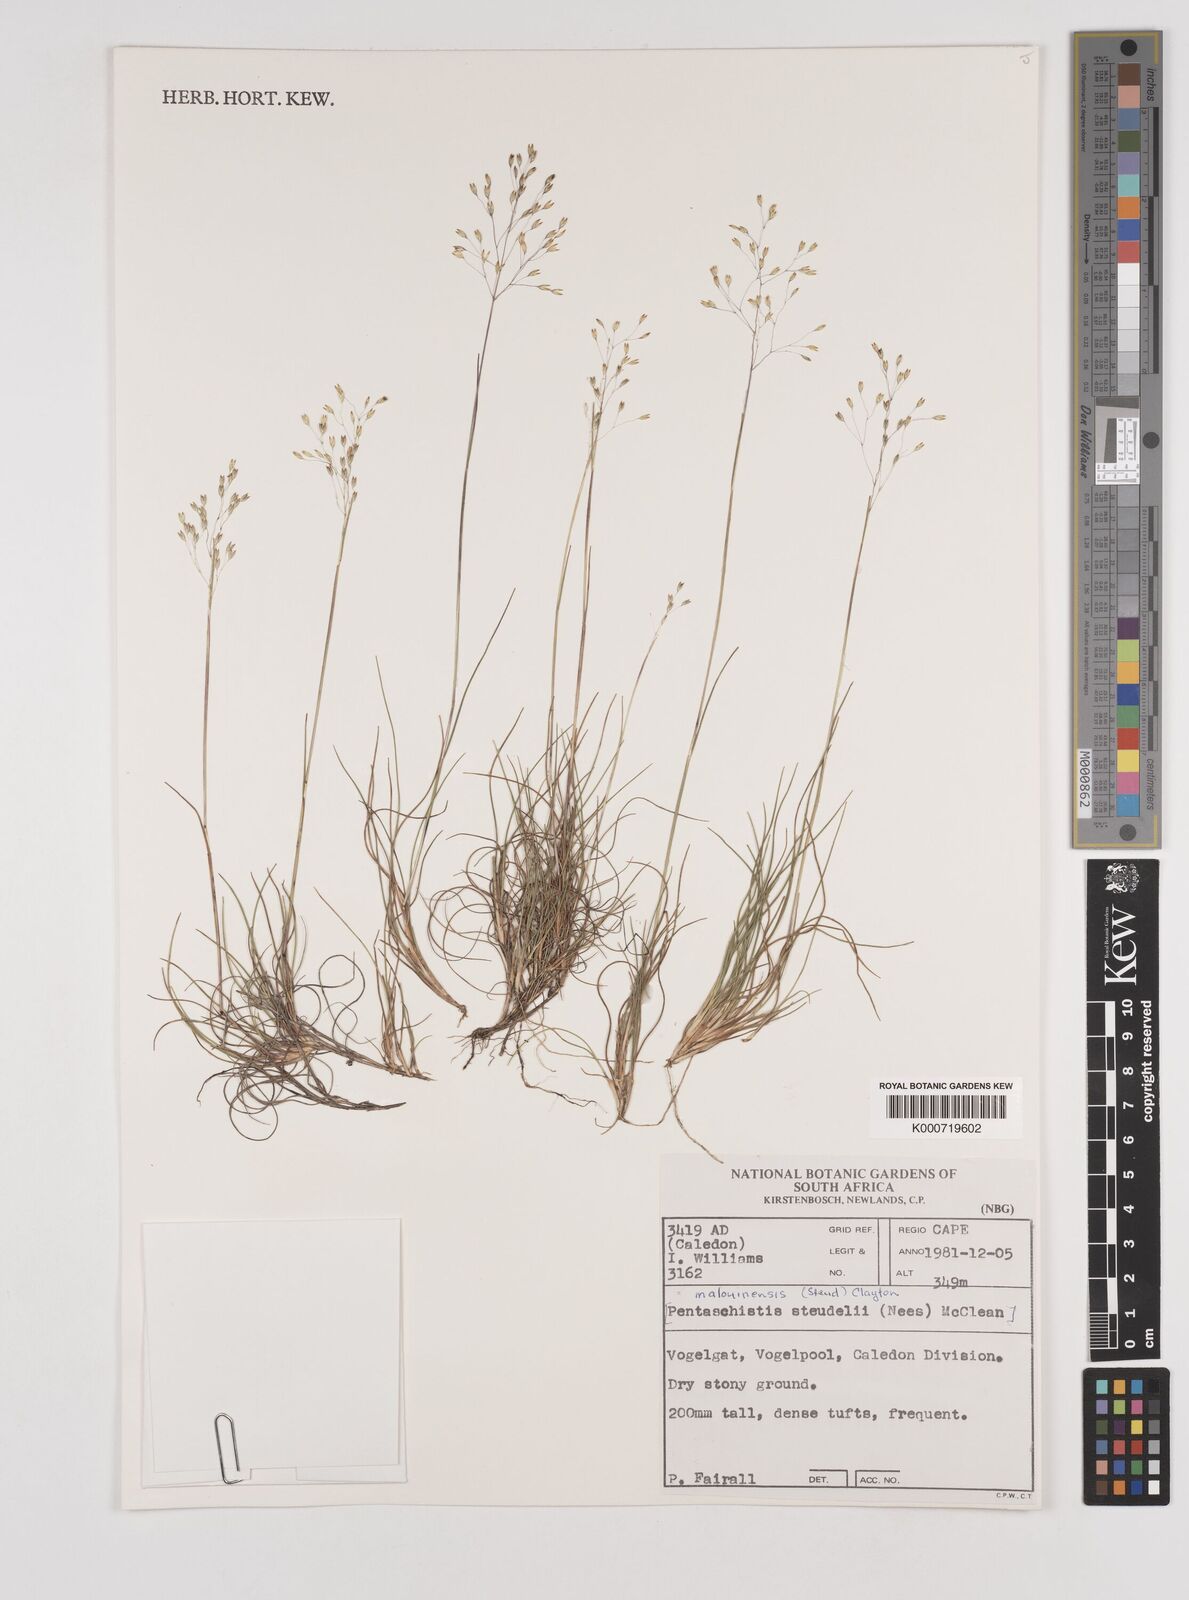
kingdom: Plantae
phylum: Tracheophyta
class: Liliopsida
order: Poales
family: Poaceae
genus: Pentameris
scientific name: Pentameris malouinensis
